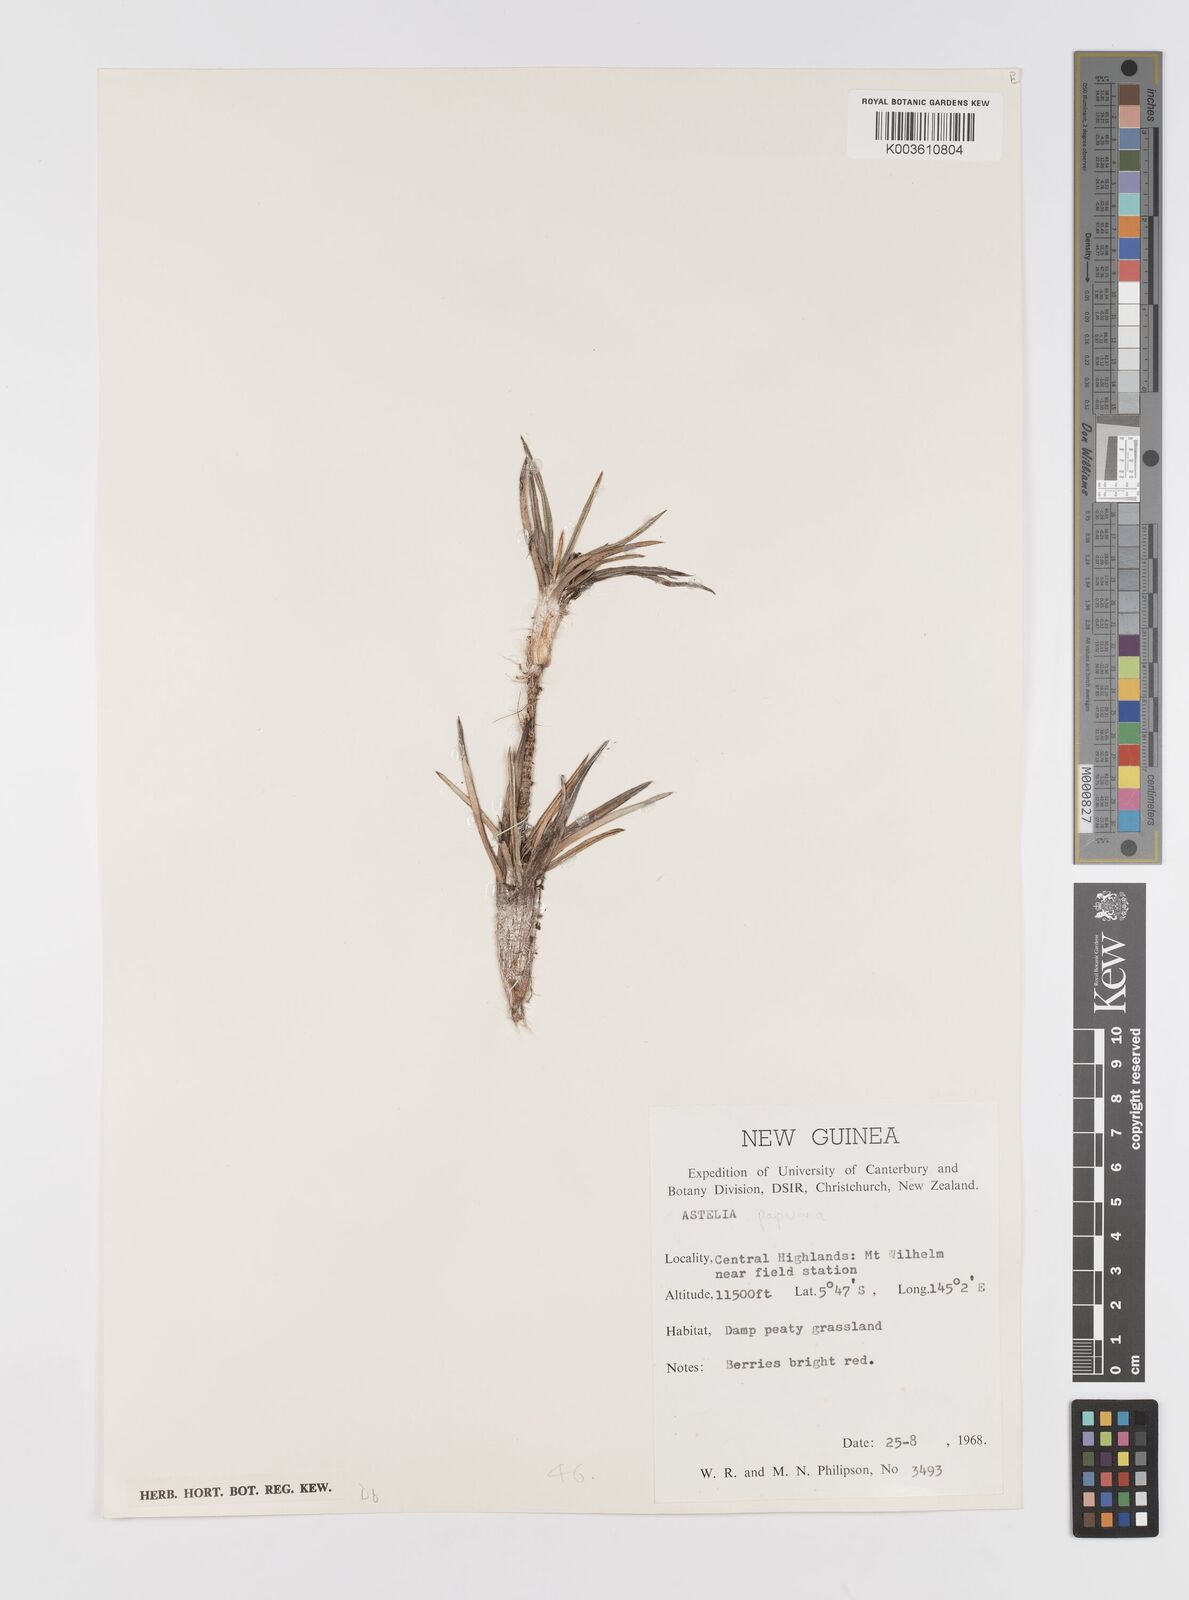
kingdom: Plantae
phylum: Tracheophyta
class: Liliopsida
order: Asparagales
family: Asteliaceae
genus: Astelia
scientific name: Astelia papuana
